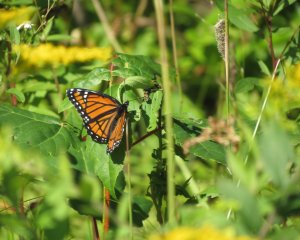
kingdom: Animalia
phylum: Arthropoda
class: Insecta
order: Lepidoptera
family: Nymphalidae
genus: Limenitis
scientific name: Limenitis archippus
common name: Viceroy
